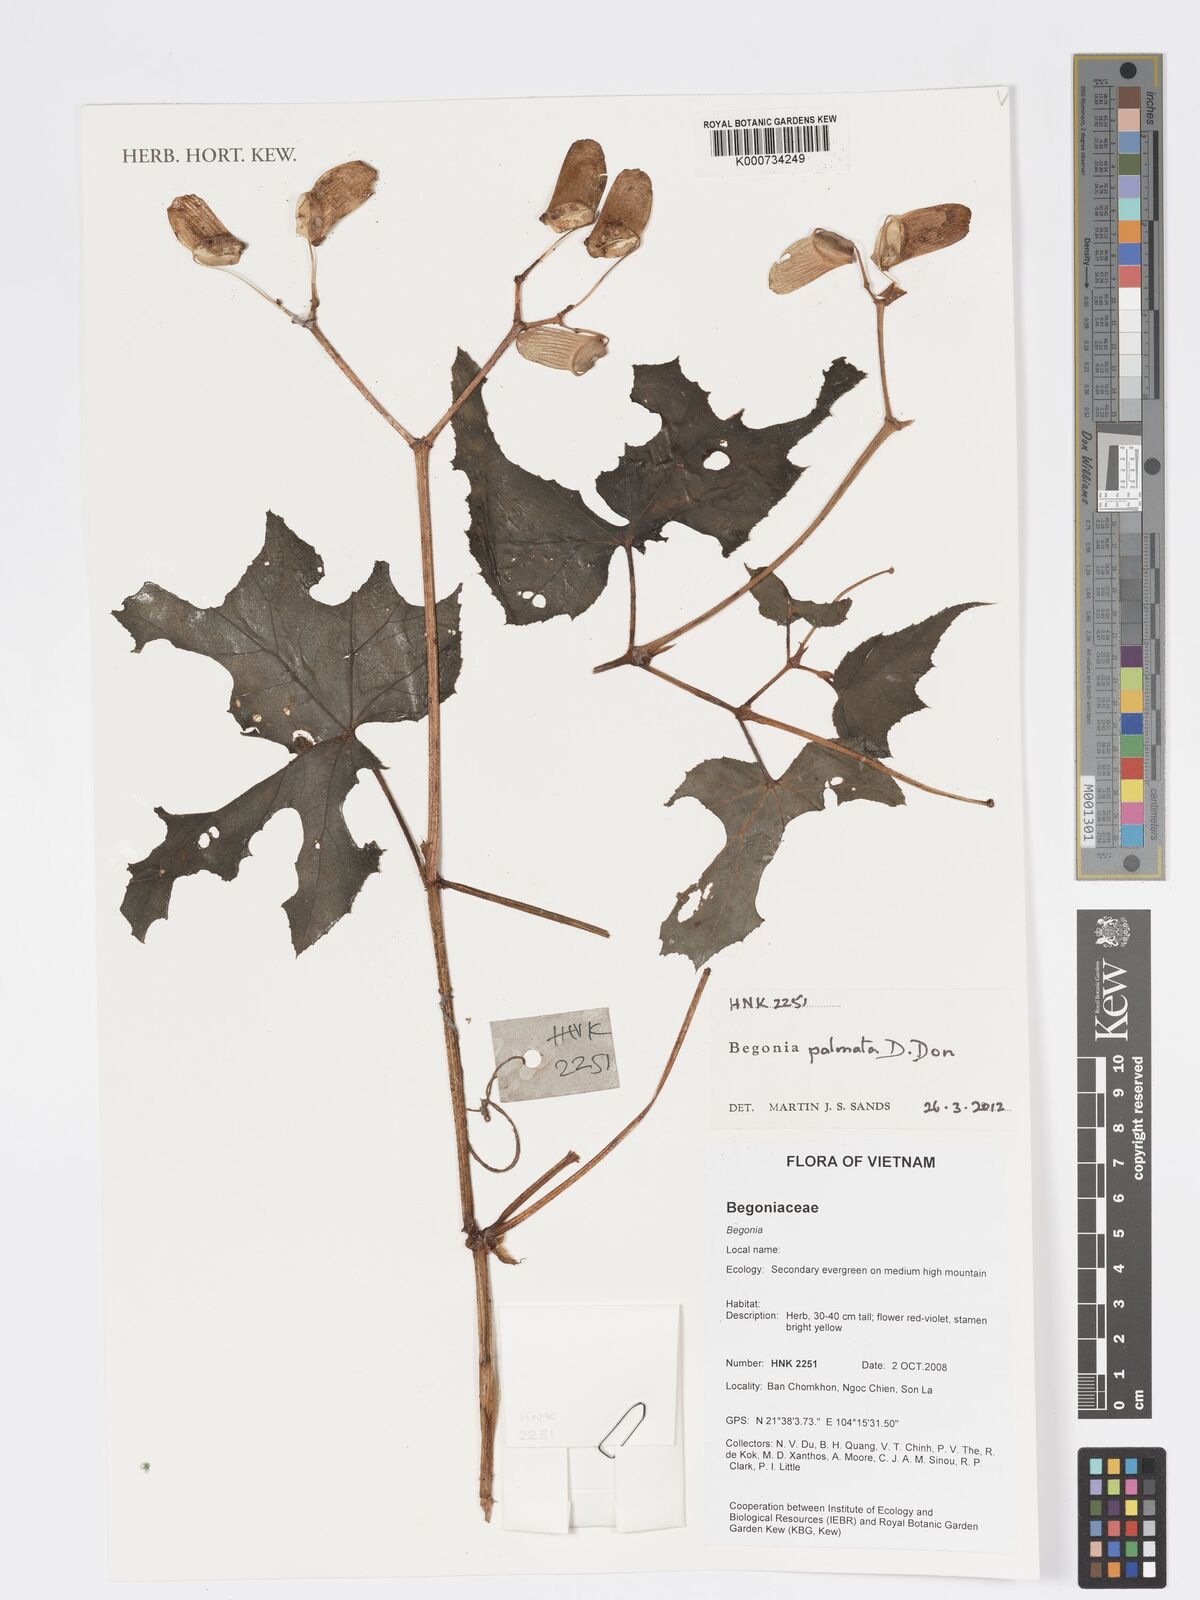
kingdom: Plantae
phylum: Tracheophyta
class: Magnoliopsida
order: Cucurbitales
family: Begoniaceae
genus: Begonia
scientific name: Begonia palmata
